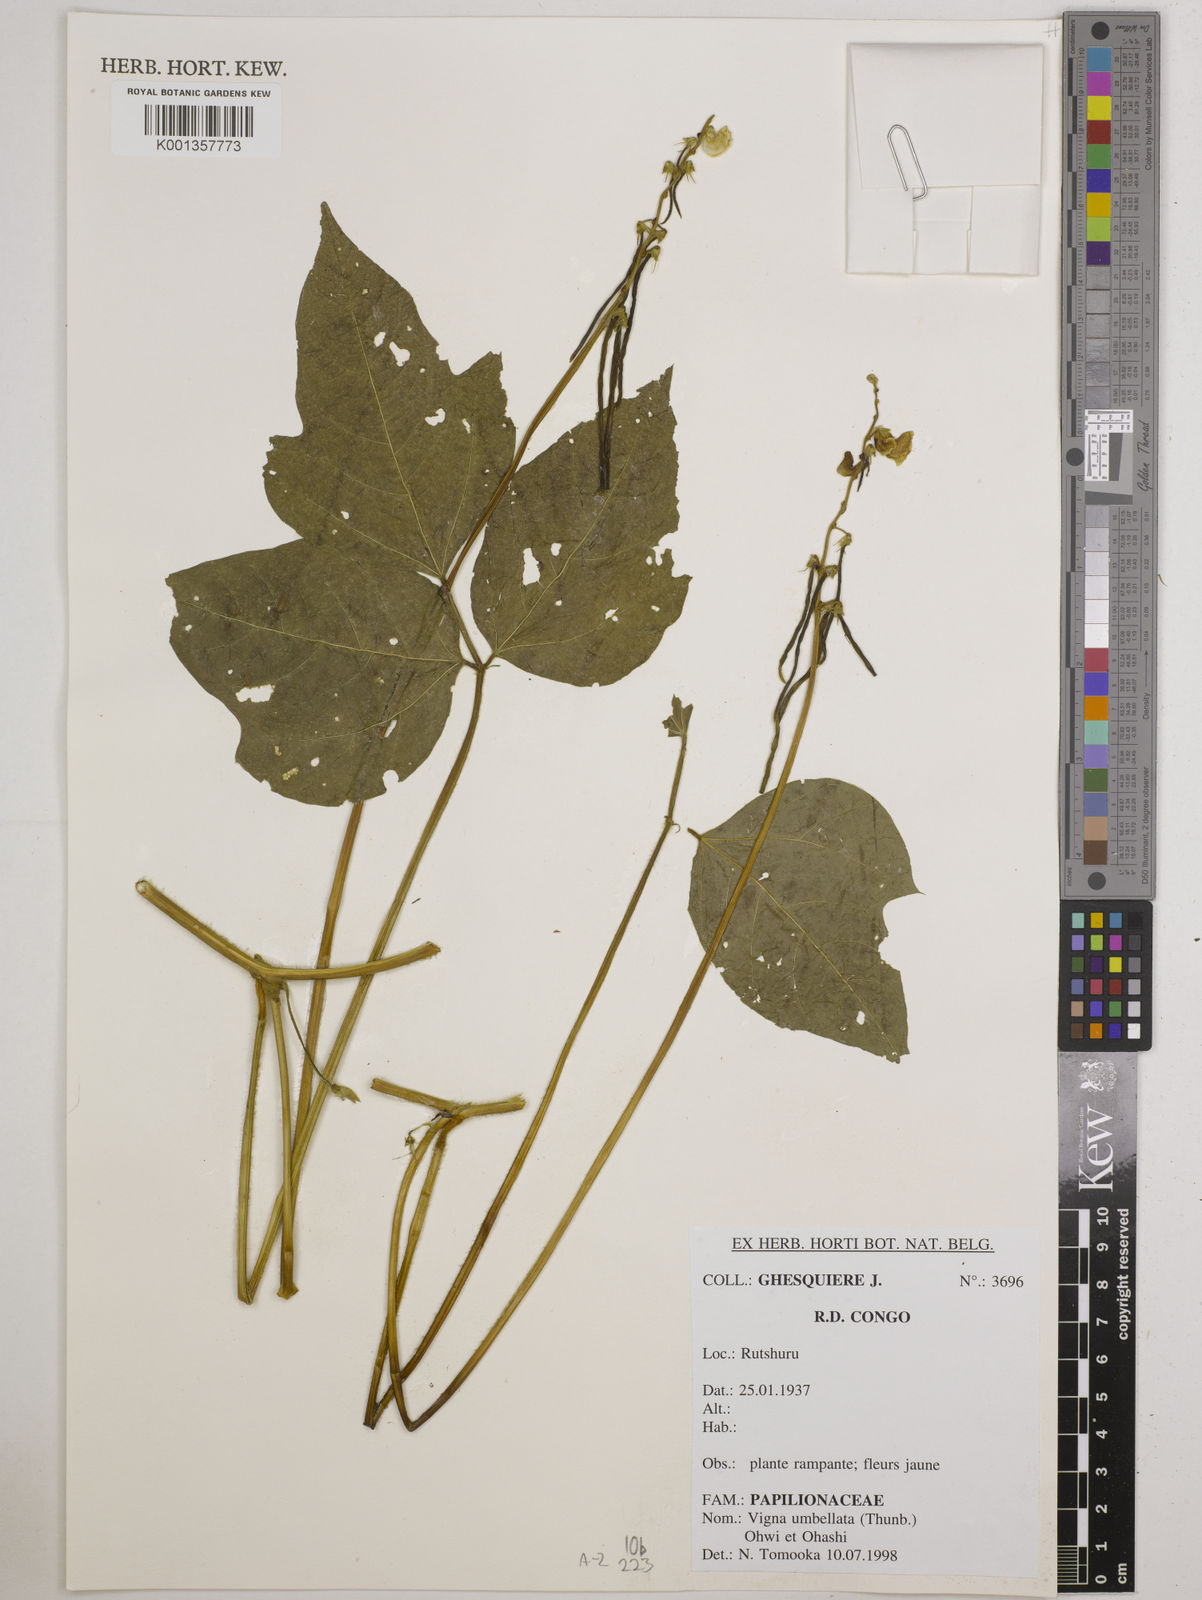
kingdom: Plantae
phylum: Tracheophyta
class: Magnoliopsida
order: Fabales
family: Fabaceae
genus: Vigna
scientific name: Vigna umbellata
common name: Oriental-bean
